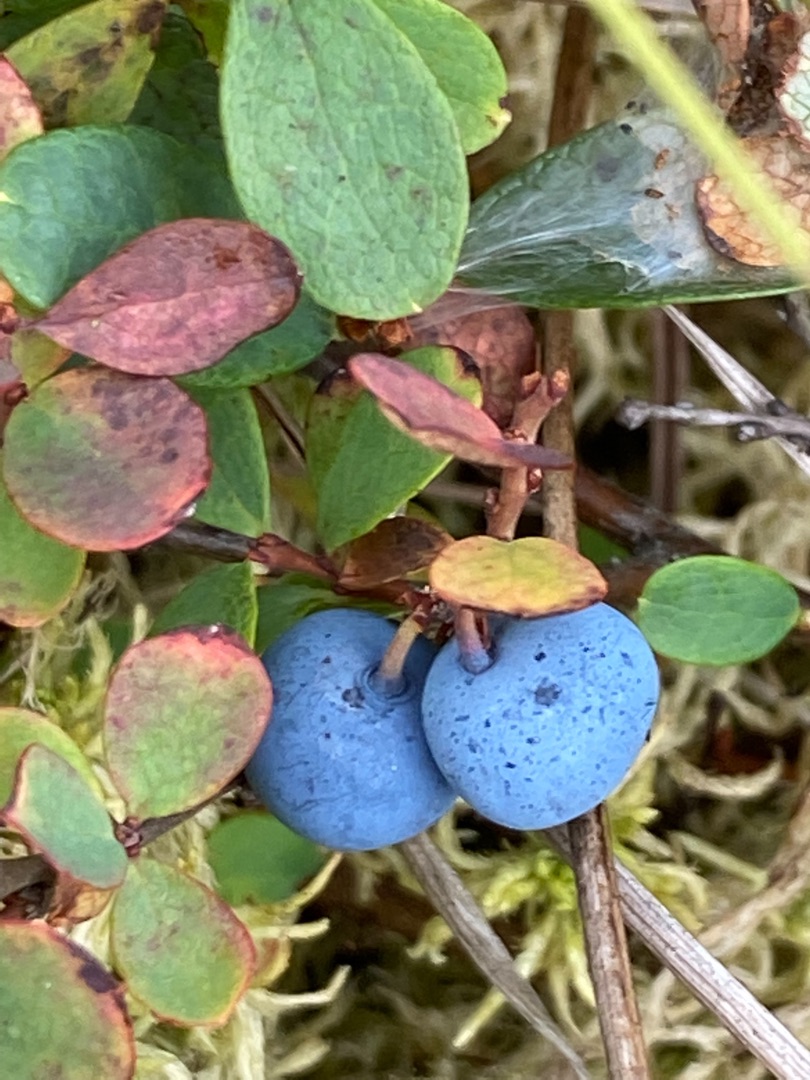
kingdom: Plantae
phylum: Tracheophyta
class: Magnoliopsida
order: Ericales
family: Ericaceae
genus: Vaccinium
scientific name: Vaccinium uliginosum
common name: Mose-bølle
